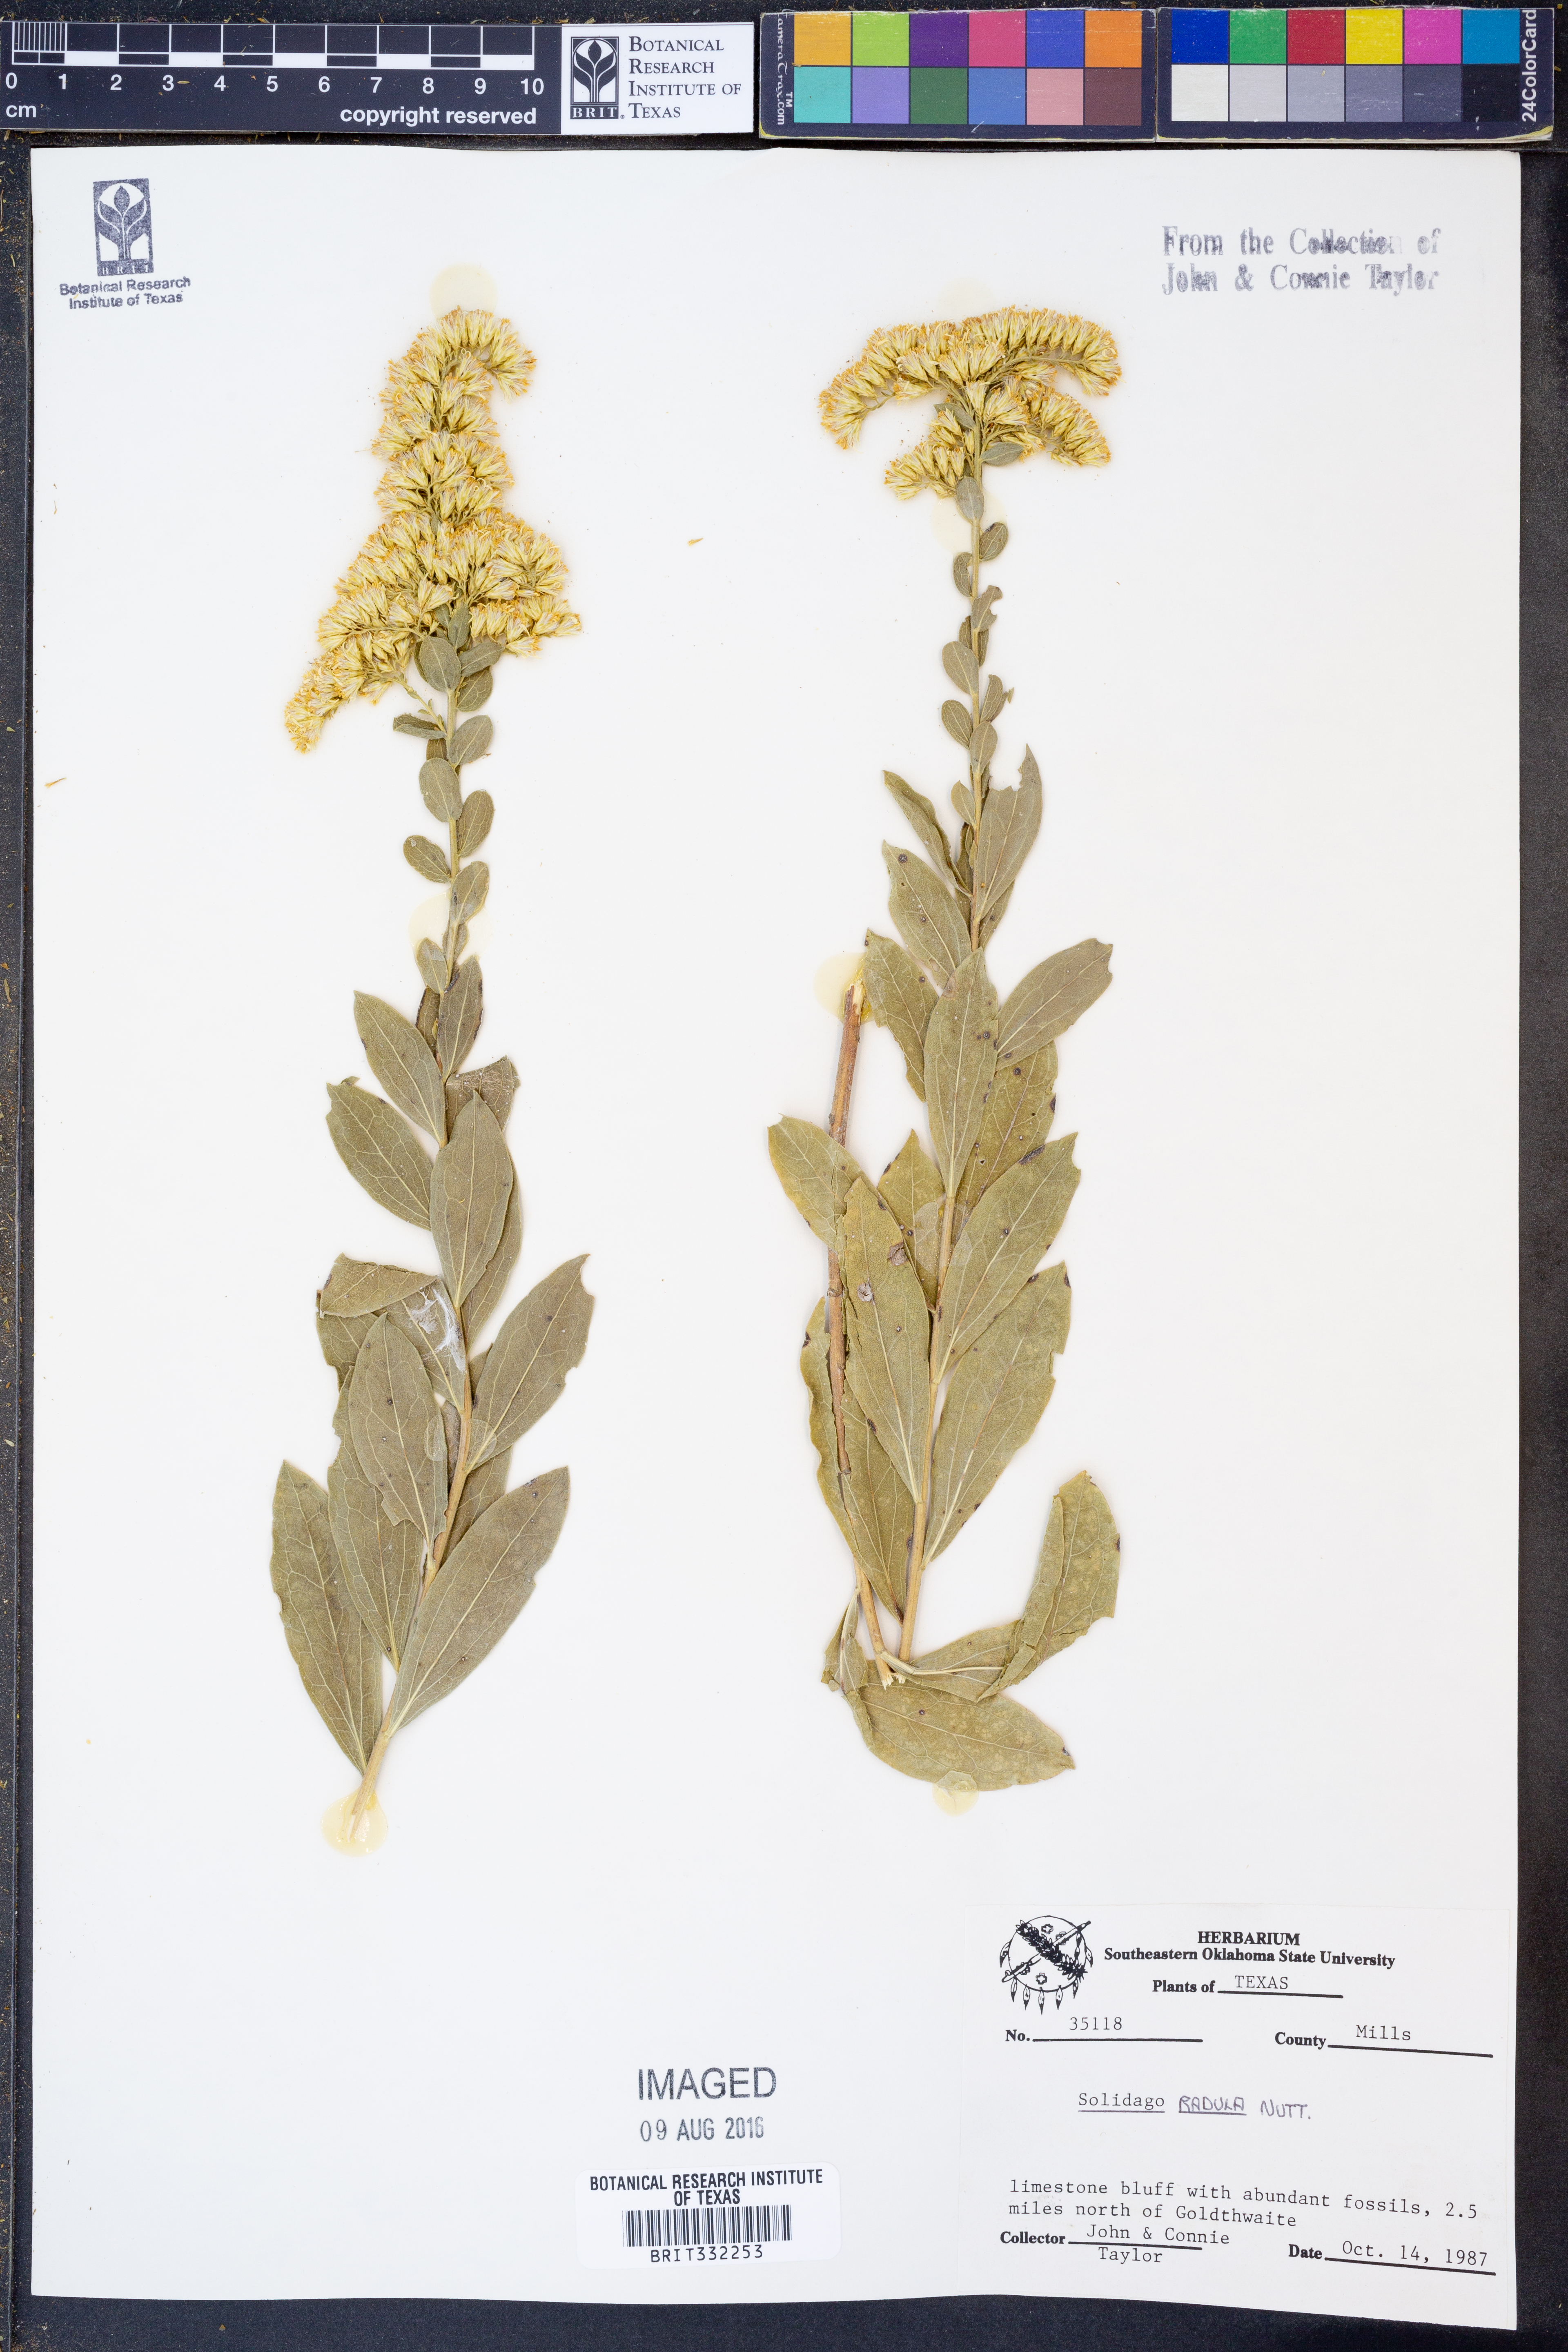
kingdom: Plantae
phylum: Tracheophyta
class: Magnoliopsida
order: Asterales
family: Asteraceae
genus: Solidago
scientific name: Solidago radula
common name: Western rough goldenrod
